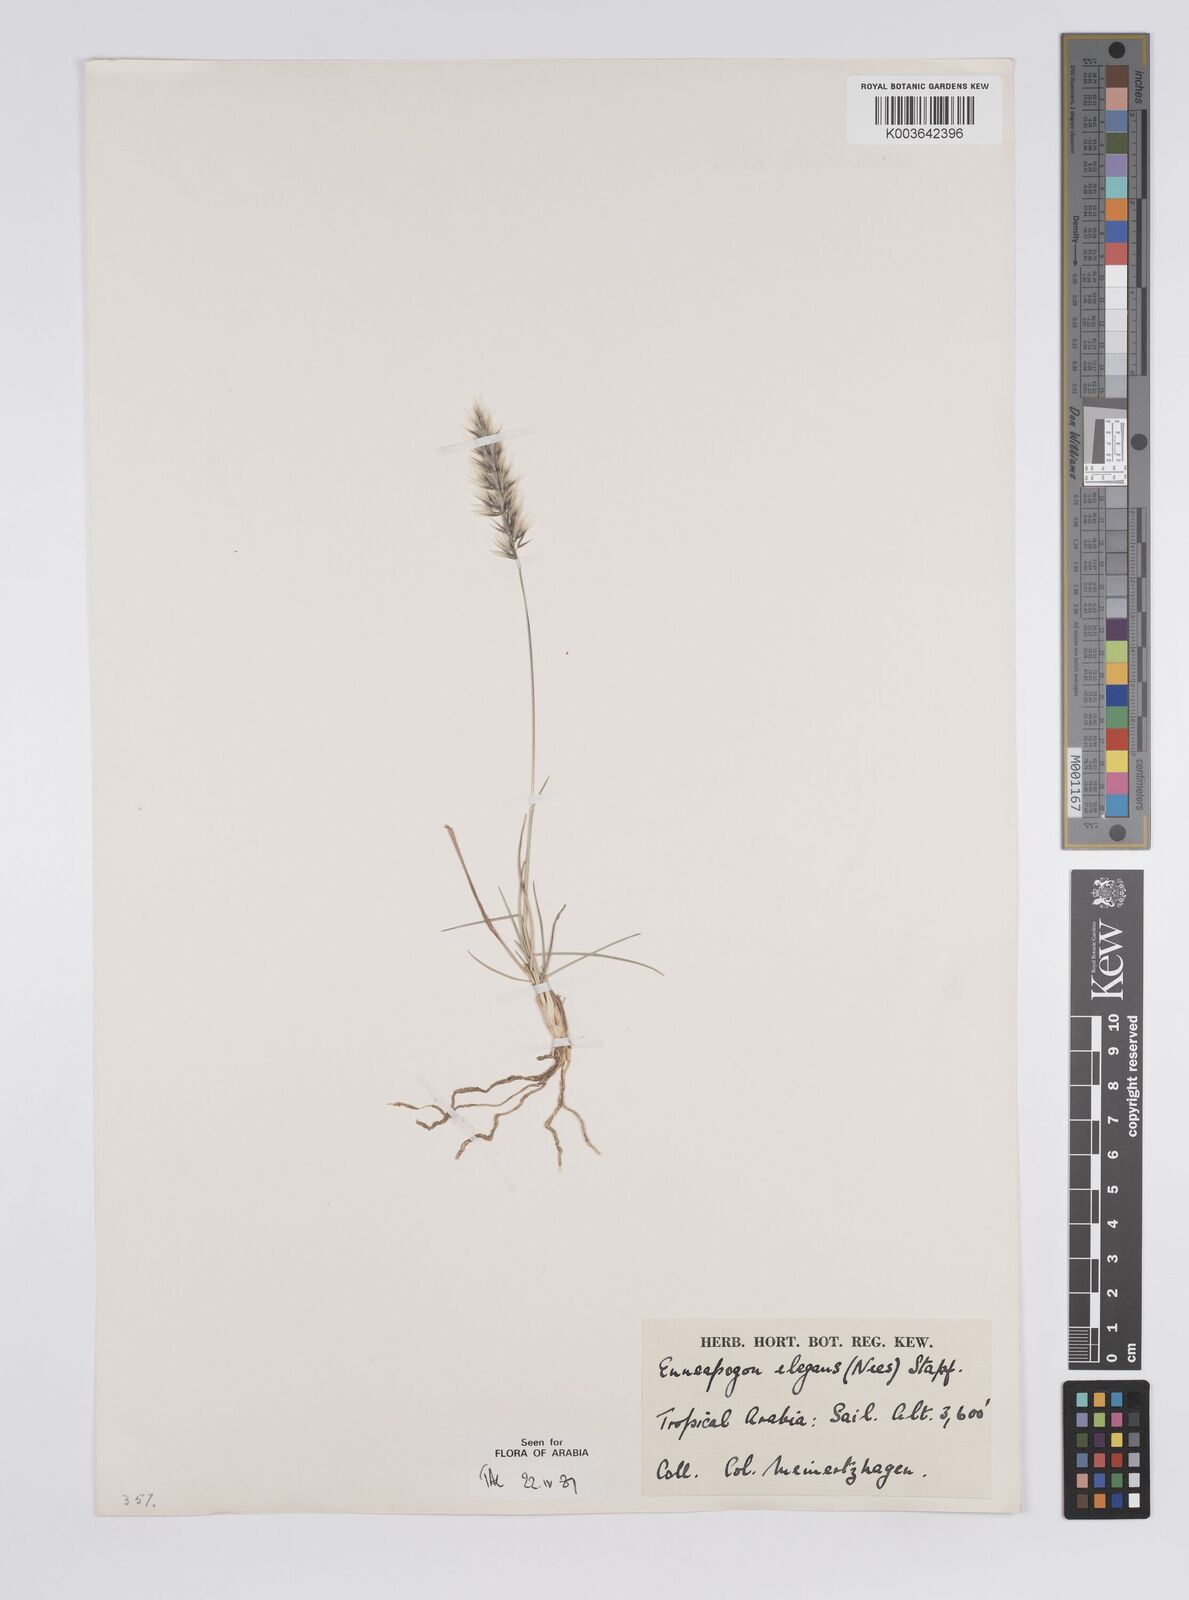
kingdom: Plantae
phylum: Tracheophyta
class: Liliopsida
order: Poales
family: Poaceae
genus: Enneapogon
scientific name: Enneapogon persicus
